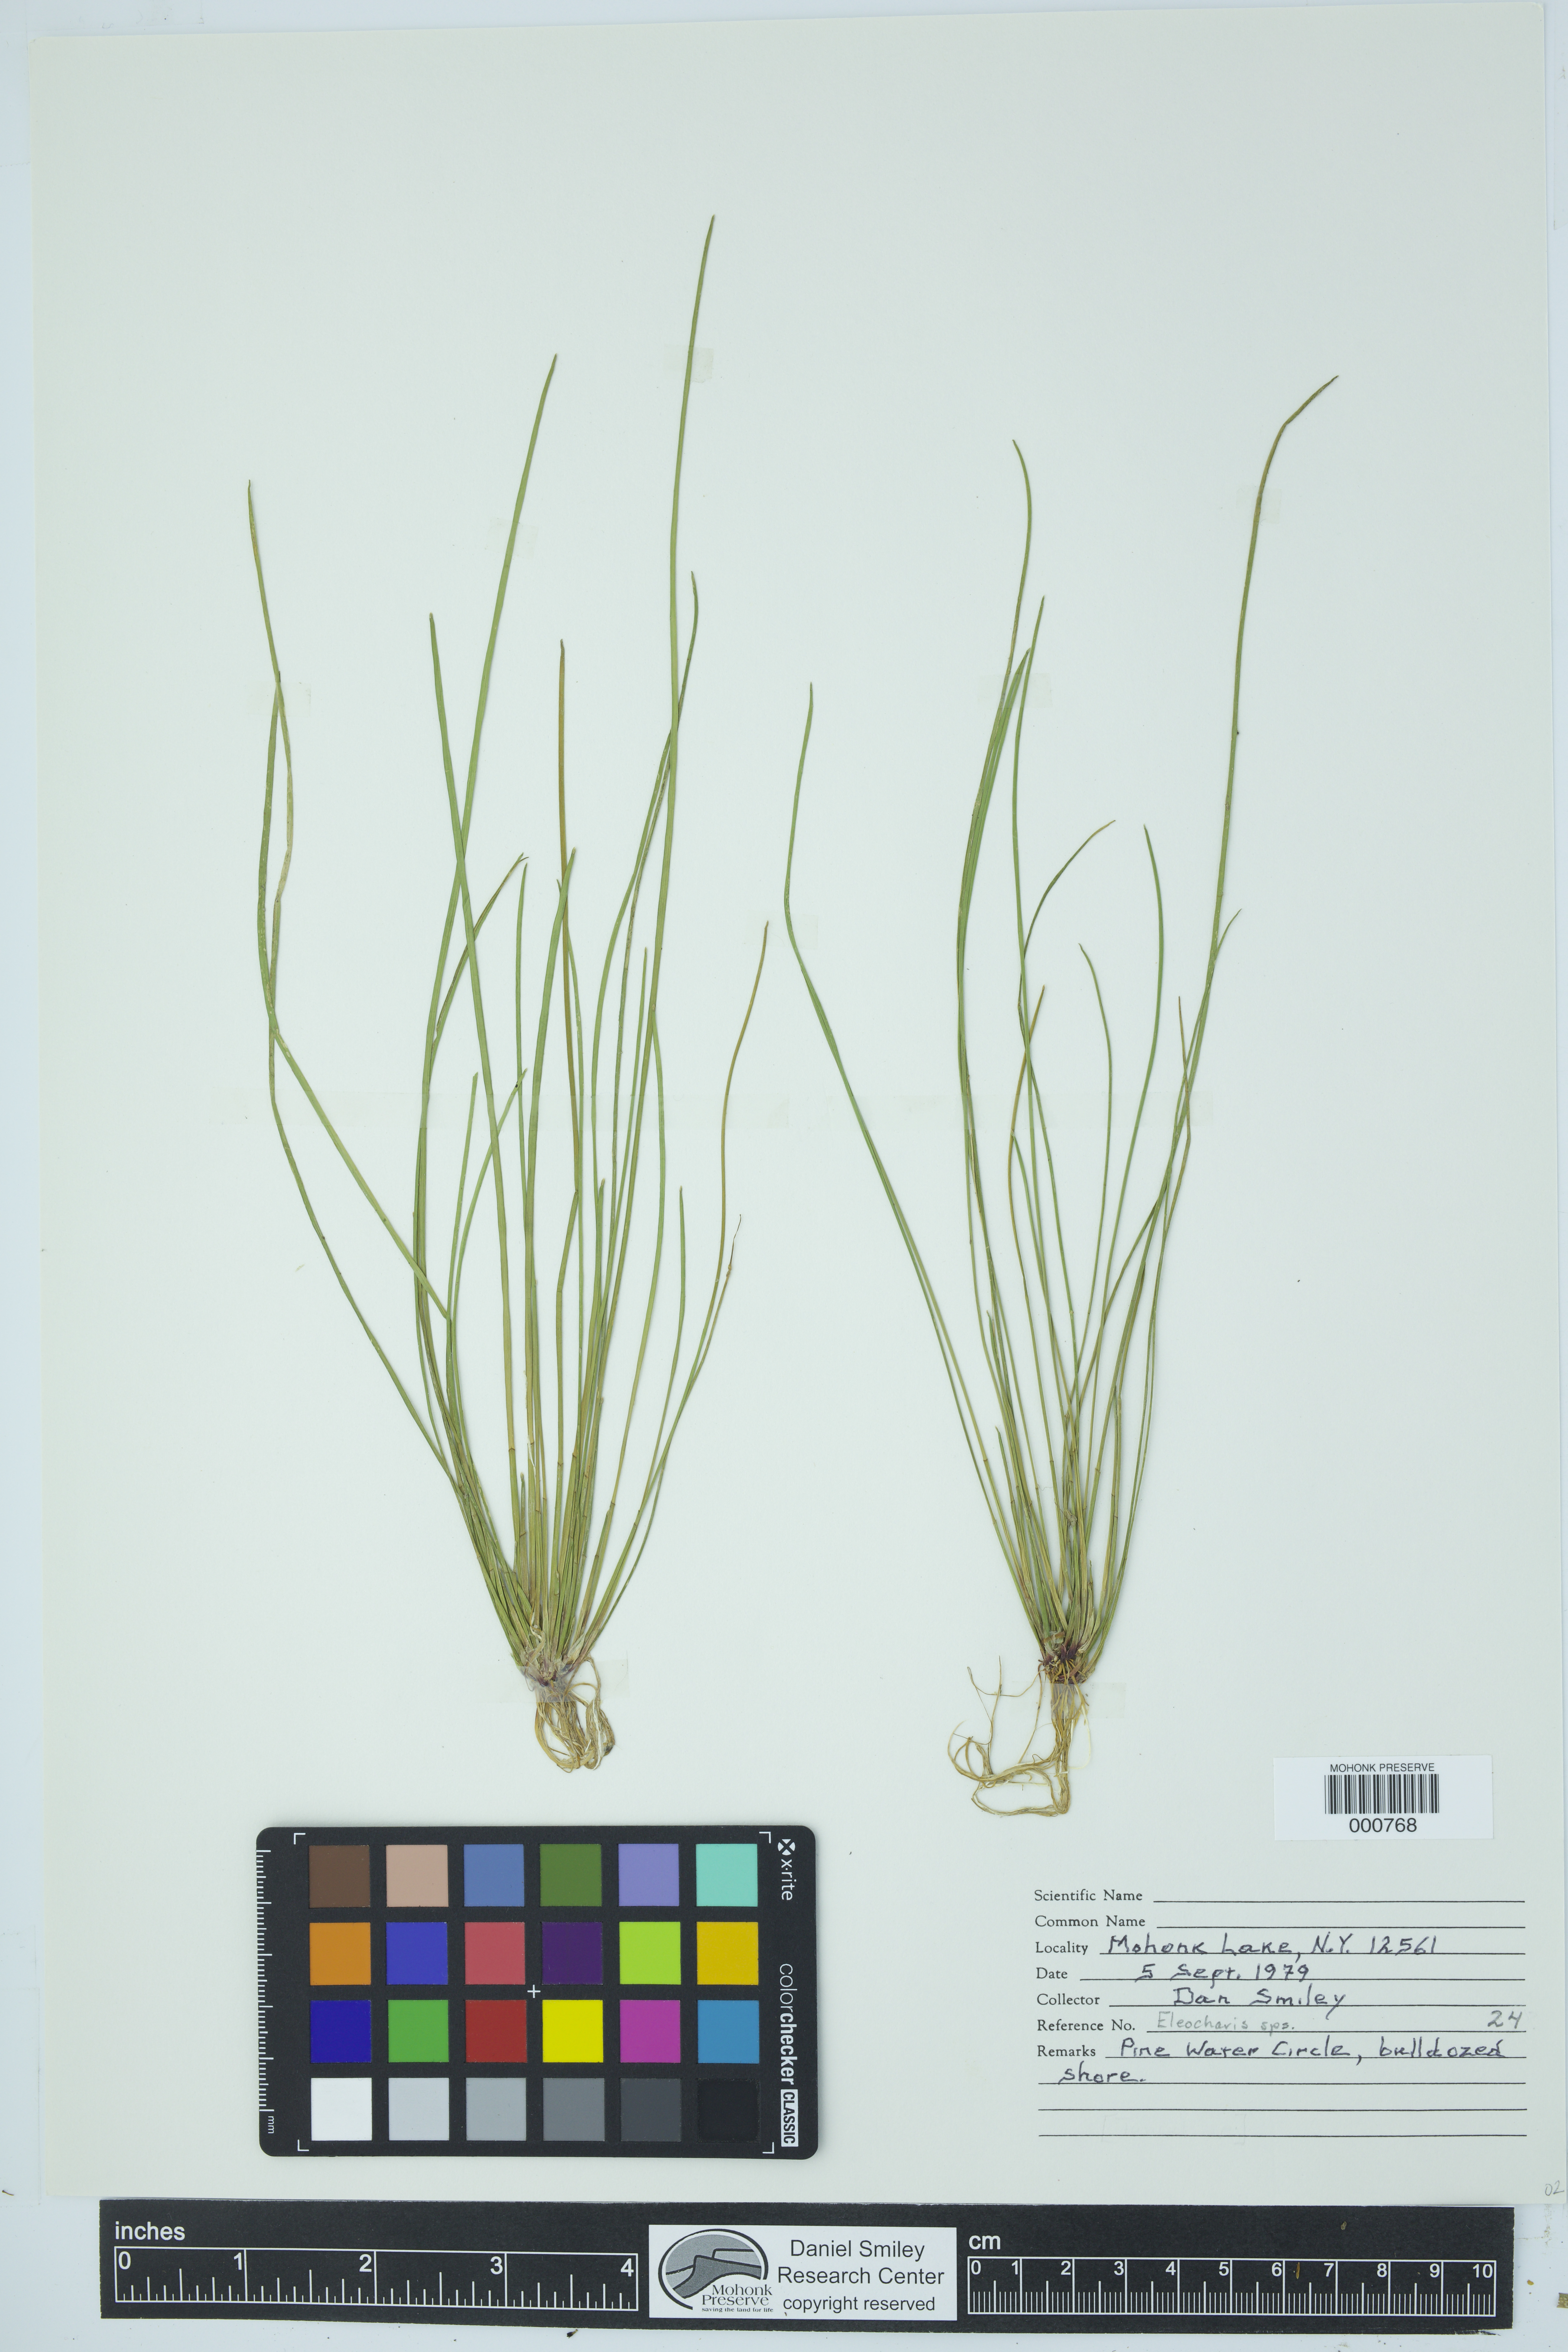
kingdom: Plantae
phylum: Tracheophyta
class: Liliopsida
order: Poales
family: Cyperaceae
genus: Eleocharis
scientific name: Eleocharis
